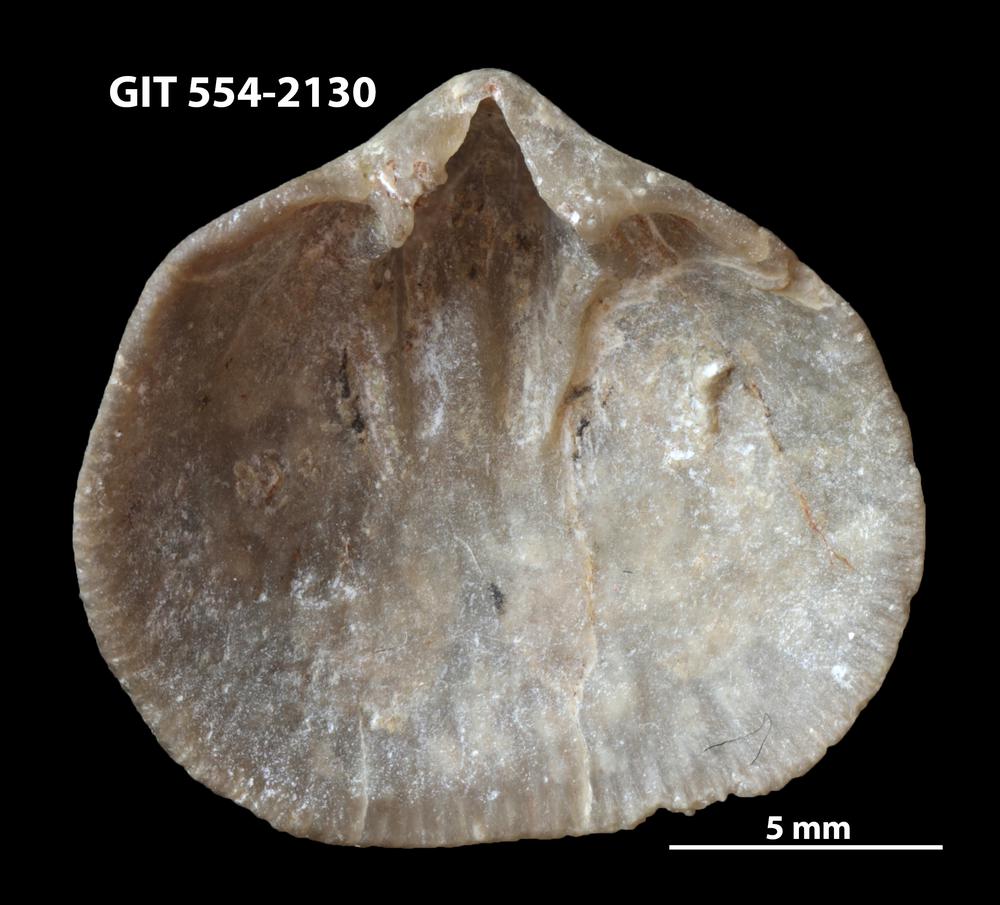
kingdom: Animalia
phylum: Brachiopoda
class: Rhynchonellata
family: Dalmanellidae
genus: Levenea
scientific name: Levenea Orthis canaliculata
